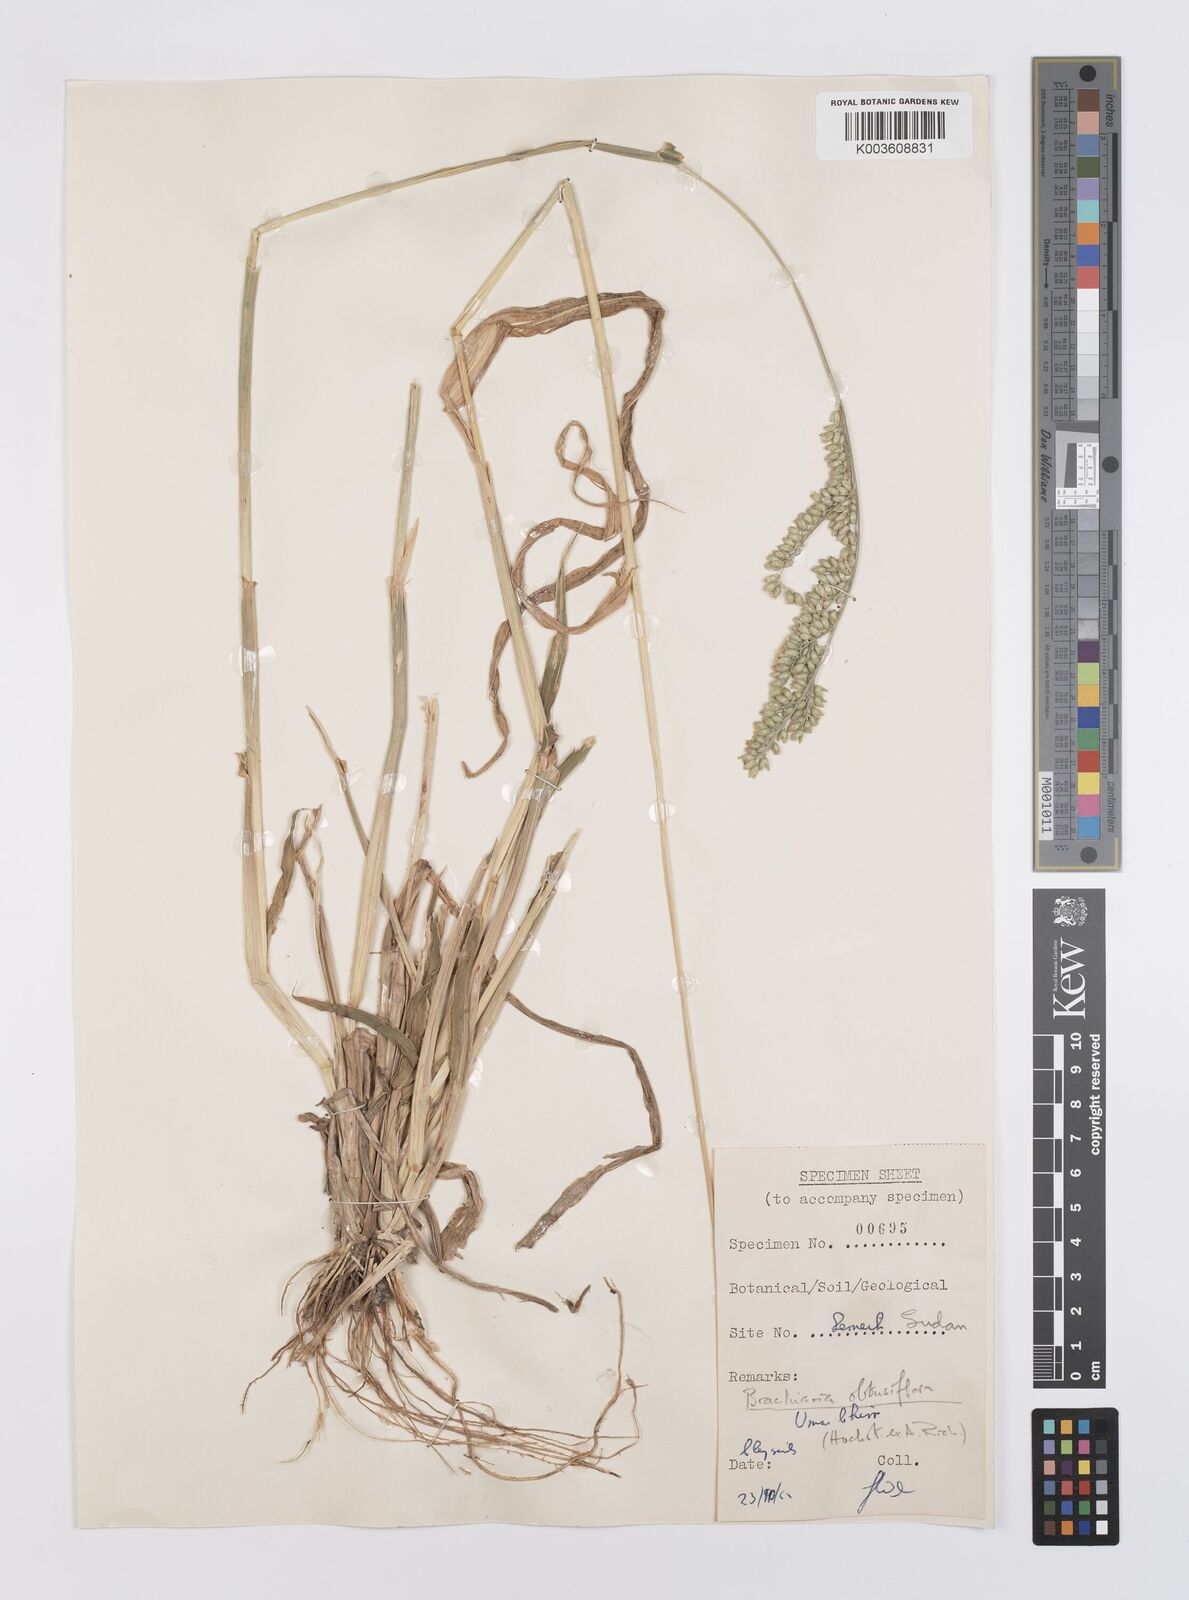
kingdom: Plantae
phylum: Tracheophyta
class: Liliopsida
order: Poales
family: Poaceae
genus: Echinochloa
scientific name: Echinochloa rotundiflora
